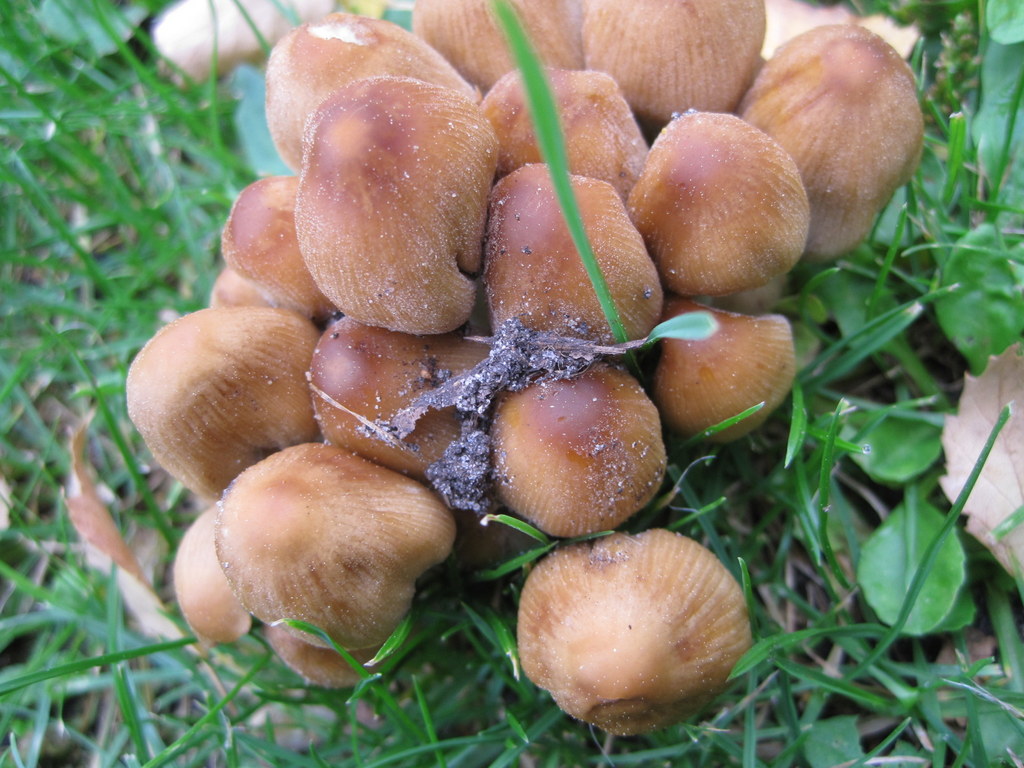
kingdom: Fungi
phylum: Basidiomycota
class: Agaricomycetes
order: Agaricales
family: Psathyrellaceae
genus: Coprinellus
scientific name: Coprinellus micaceus
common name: glimmer-blækhat
